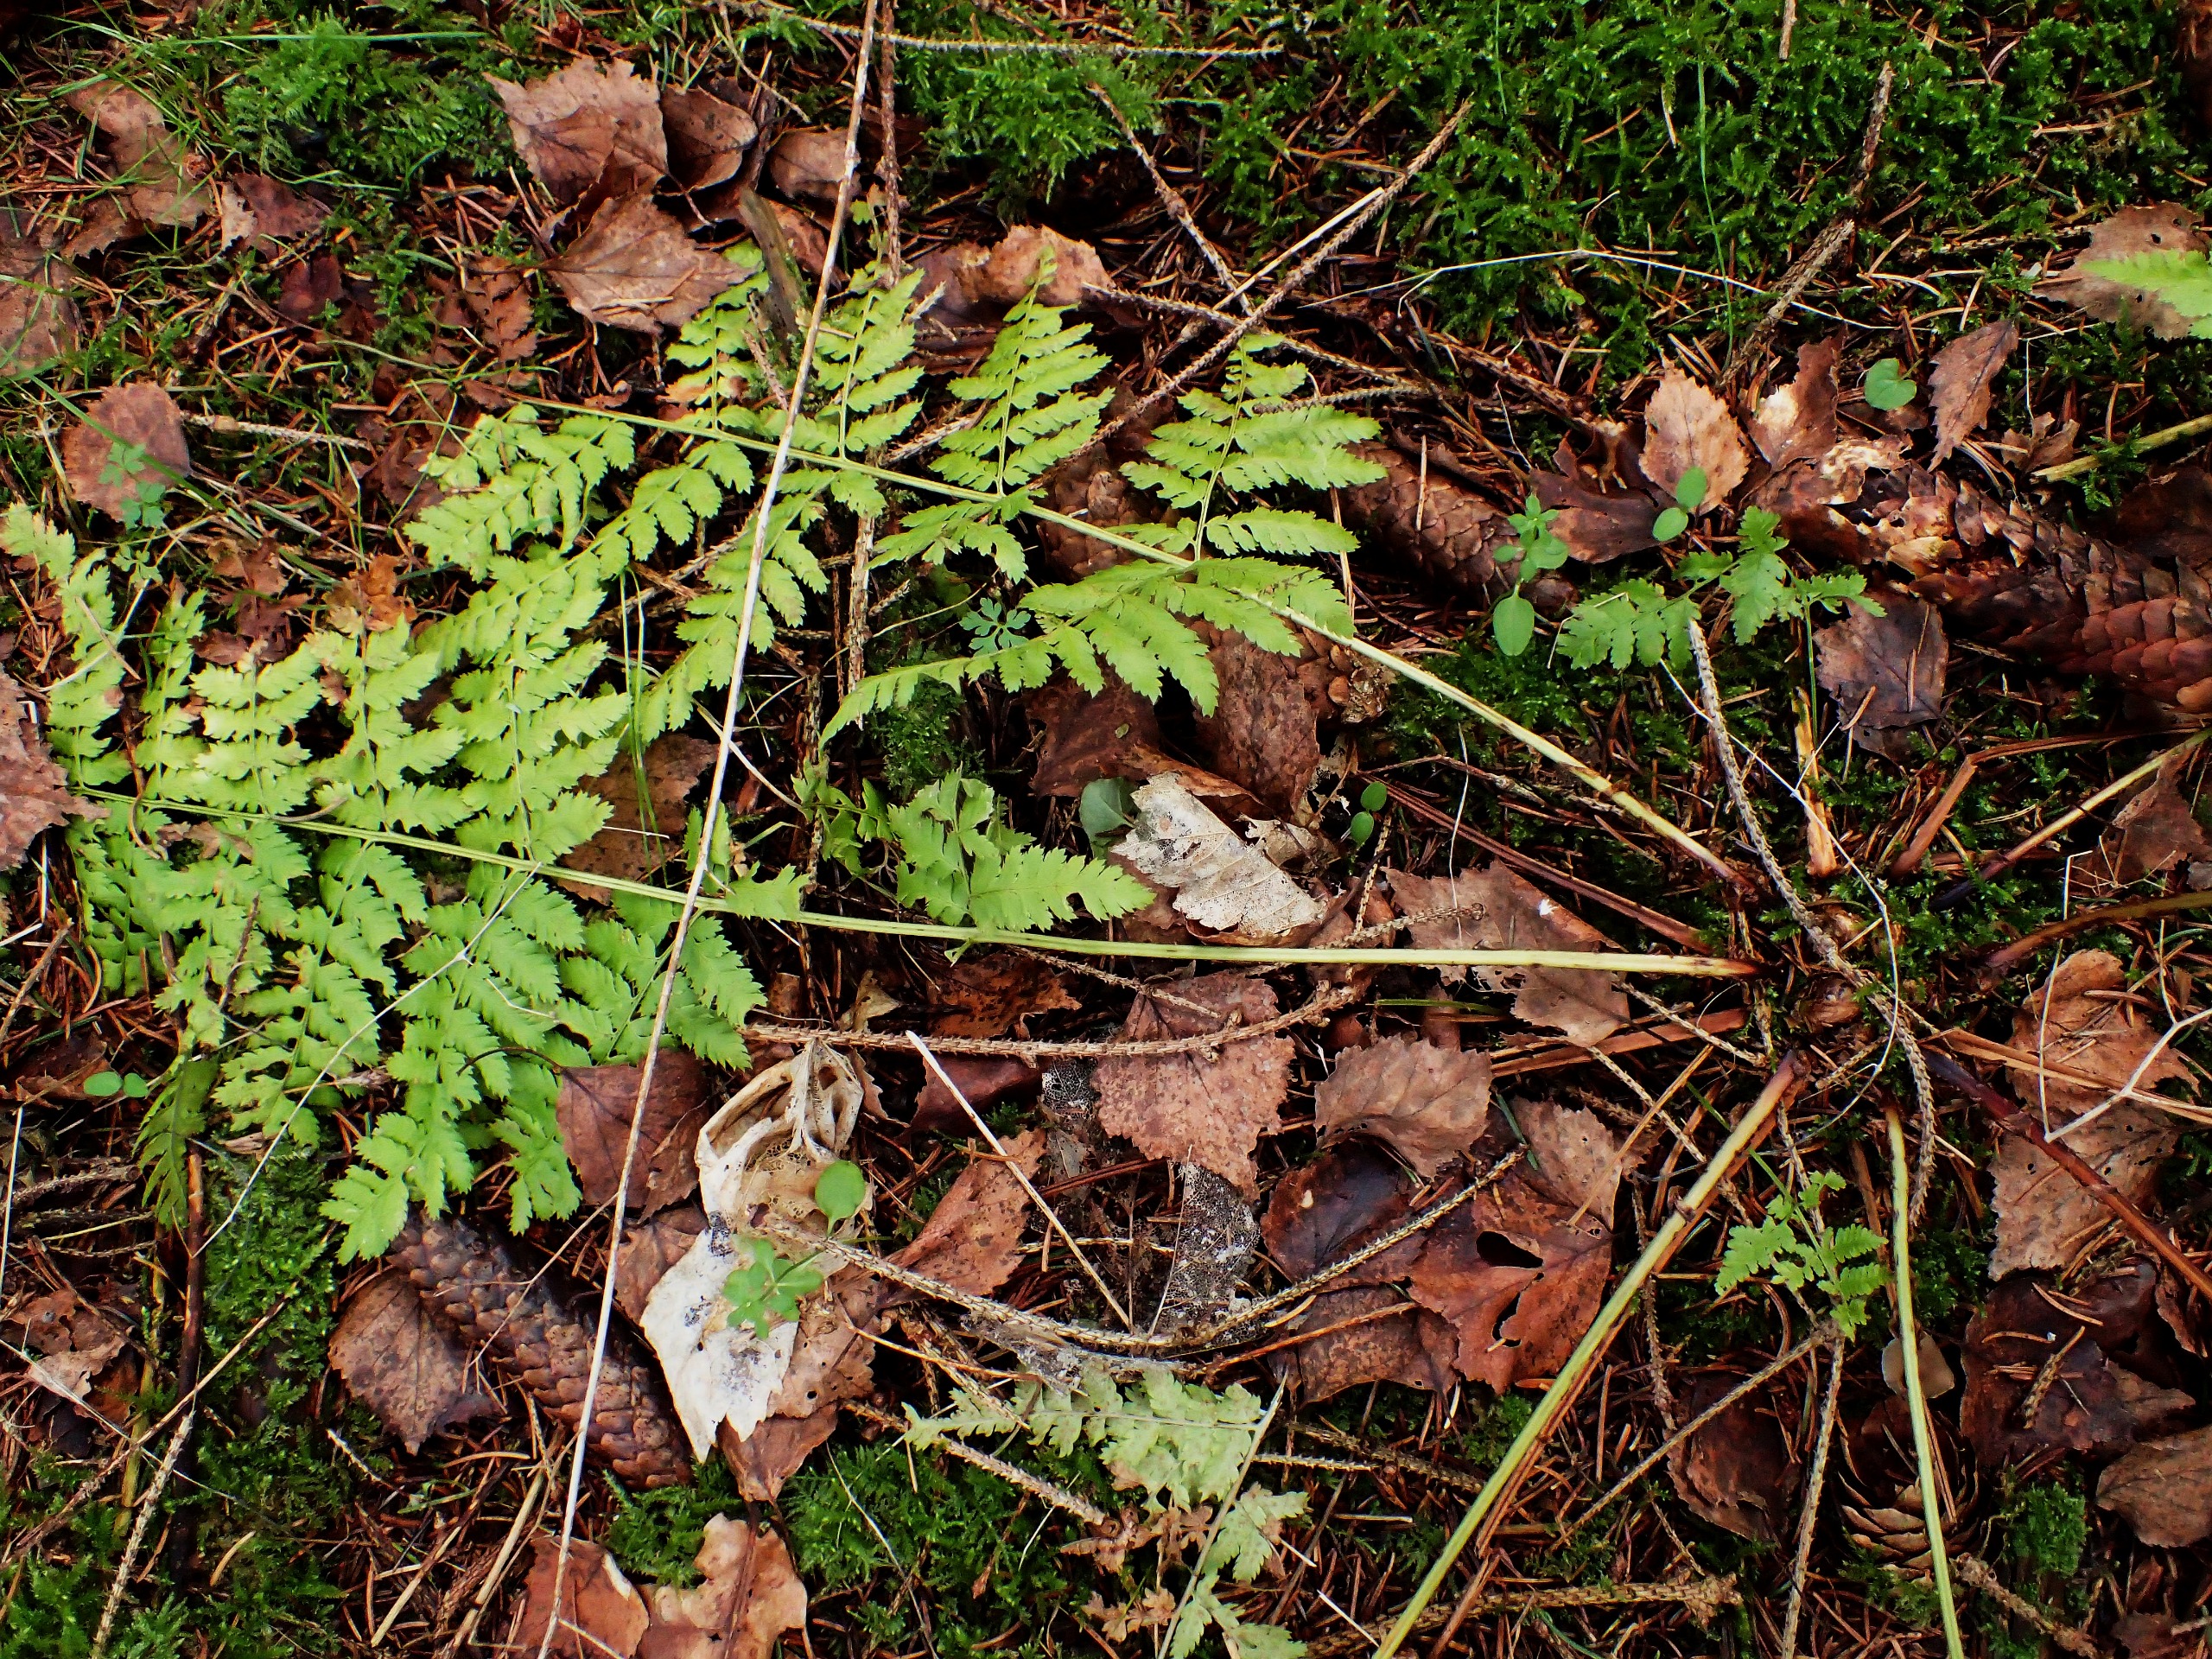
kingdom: Plantae
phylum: Tracheophyta
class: Polypodiopsida
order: Polypodiales
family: Dryopteridaceae
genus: Dryopteris
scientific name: Dryopteris carthusiana
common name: Smalbladet mangeløv
